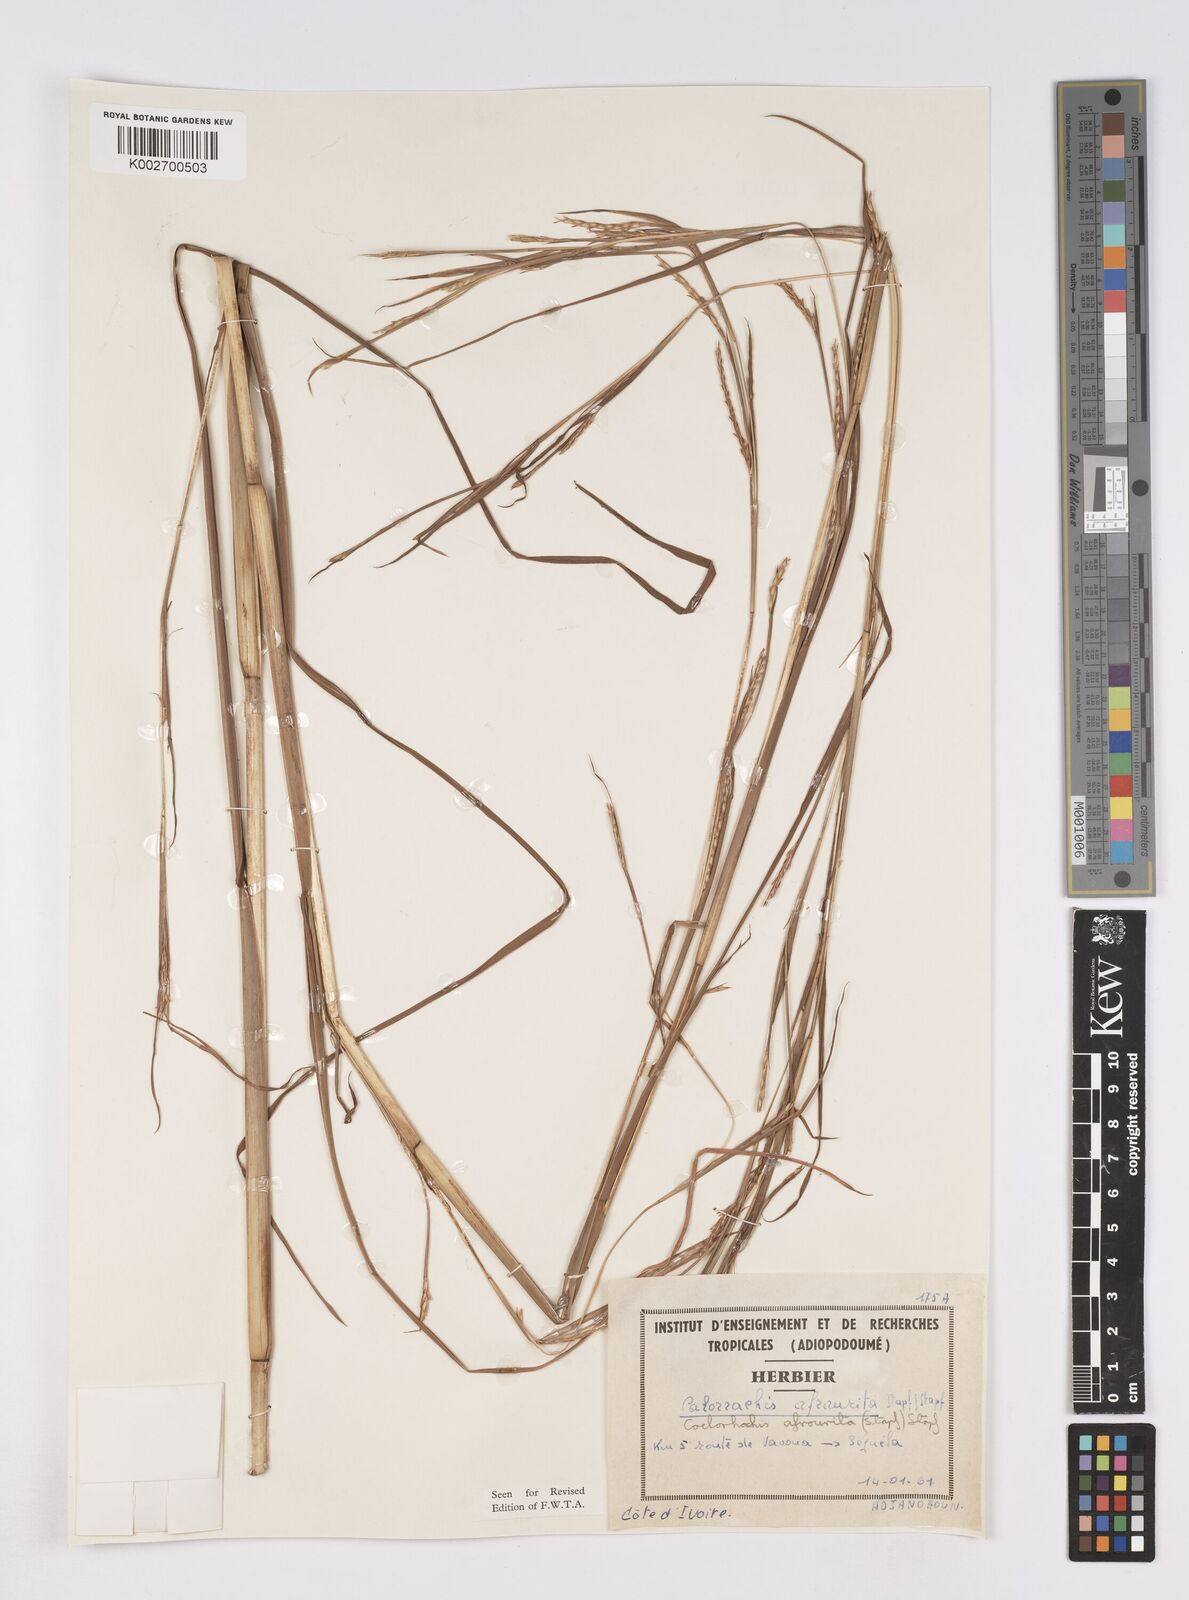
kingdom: Plantae
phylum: Tracheophyta
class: Liliopsida
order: Poales
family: Poaceae
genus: Rottboellia
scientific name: Rottboellia afraurita
